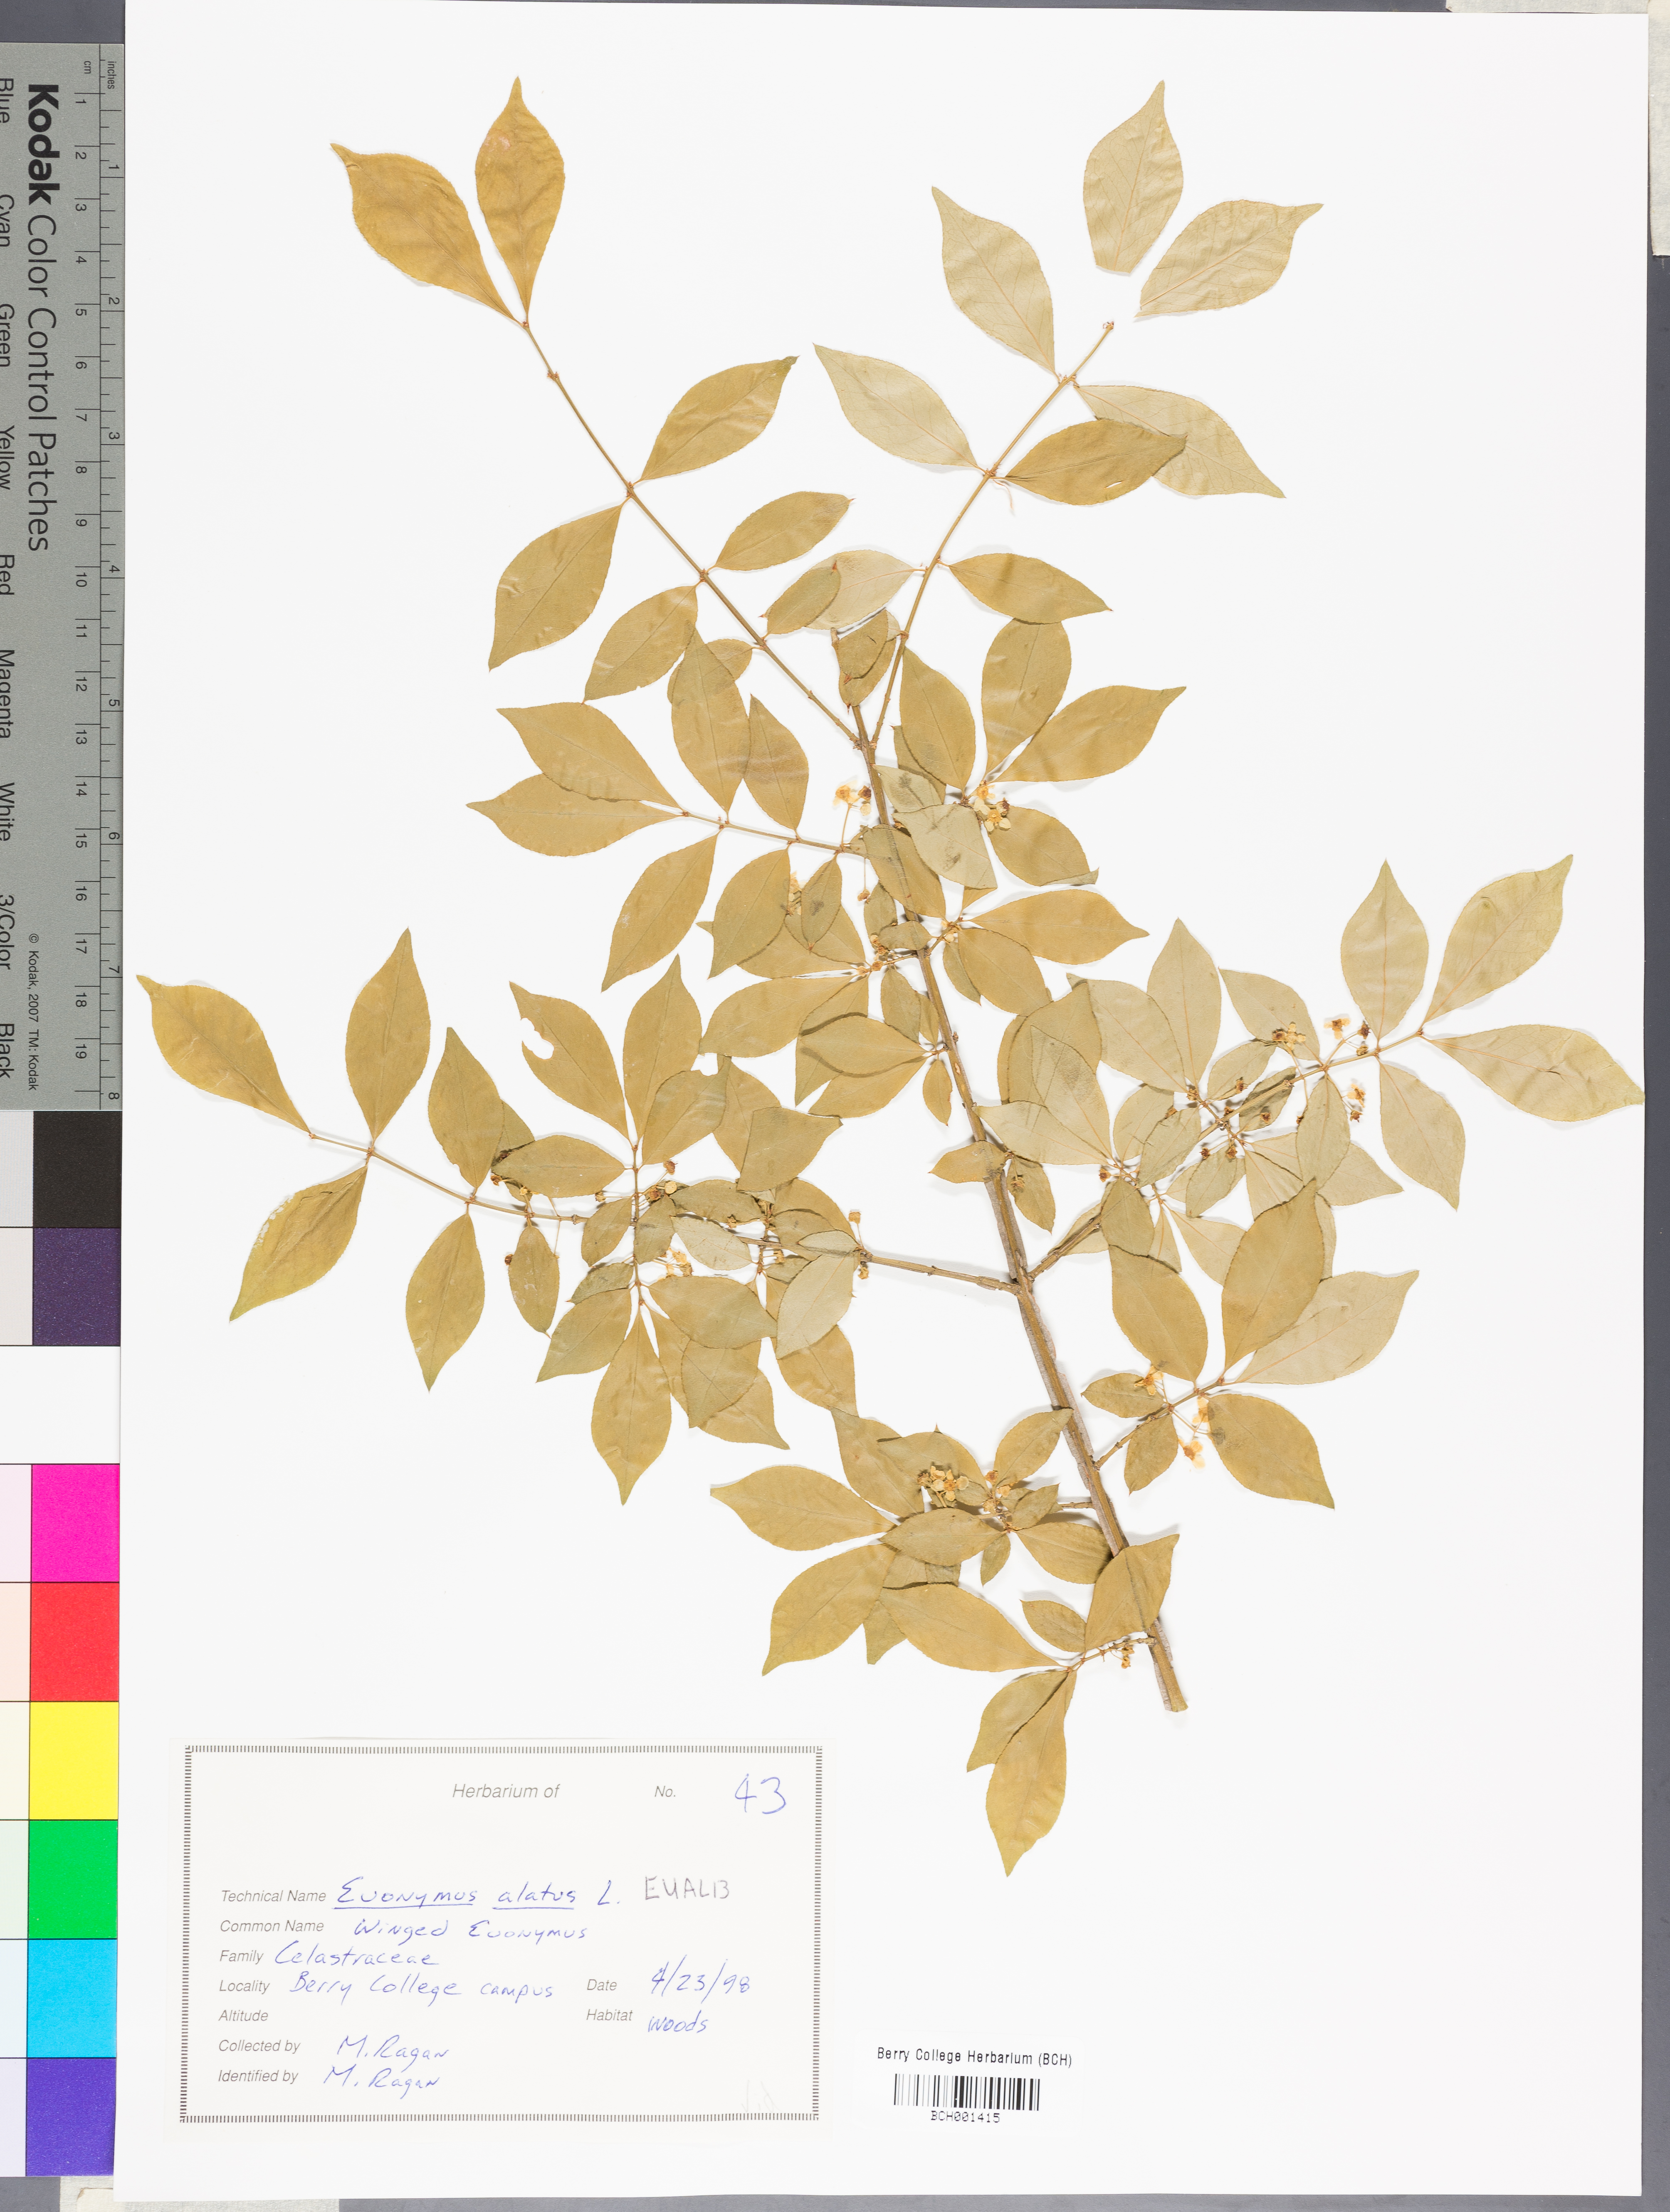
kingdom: Plantae
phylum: Tracheophyta
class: Magnoliopsida
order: Celastrales
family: Celastraceae
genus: Euonymus
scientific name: Euonymus alatus
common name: Winged euonymus
